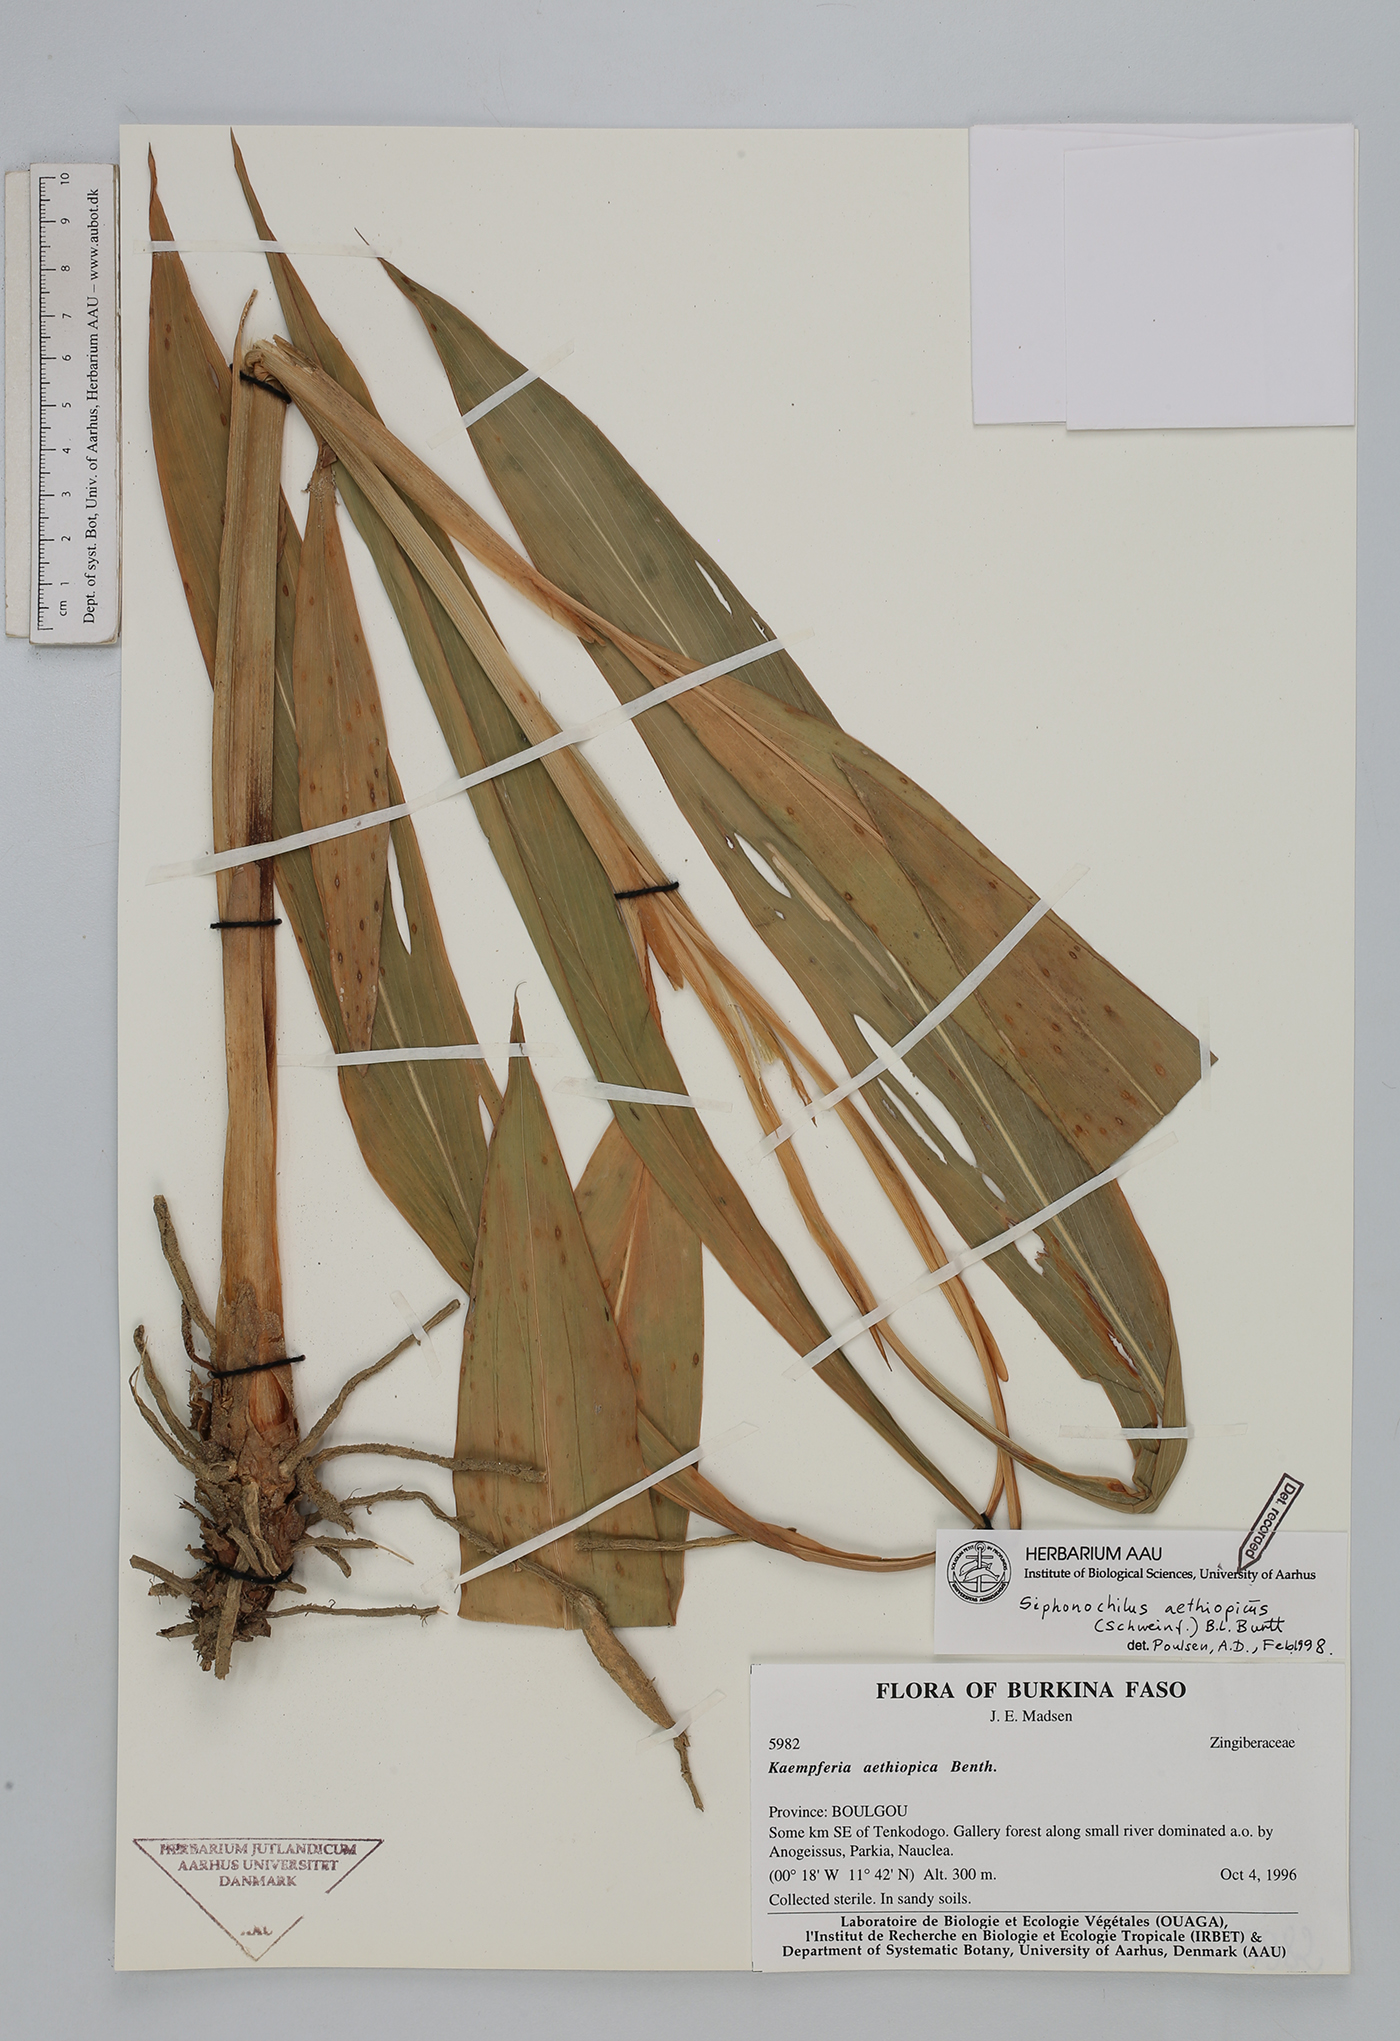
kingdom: Plantae
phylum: Tracheophyta
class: Liliopsida
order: Zingiberales
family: Zingiberaceae
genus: Siphonochilus
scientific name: Siphonochilus aethiopicus
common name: African-ginger
